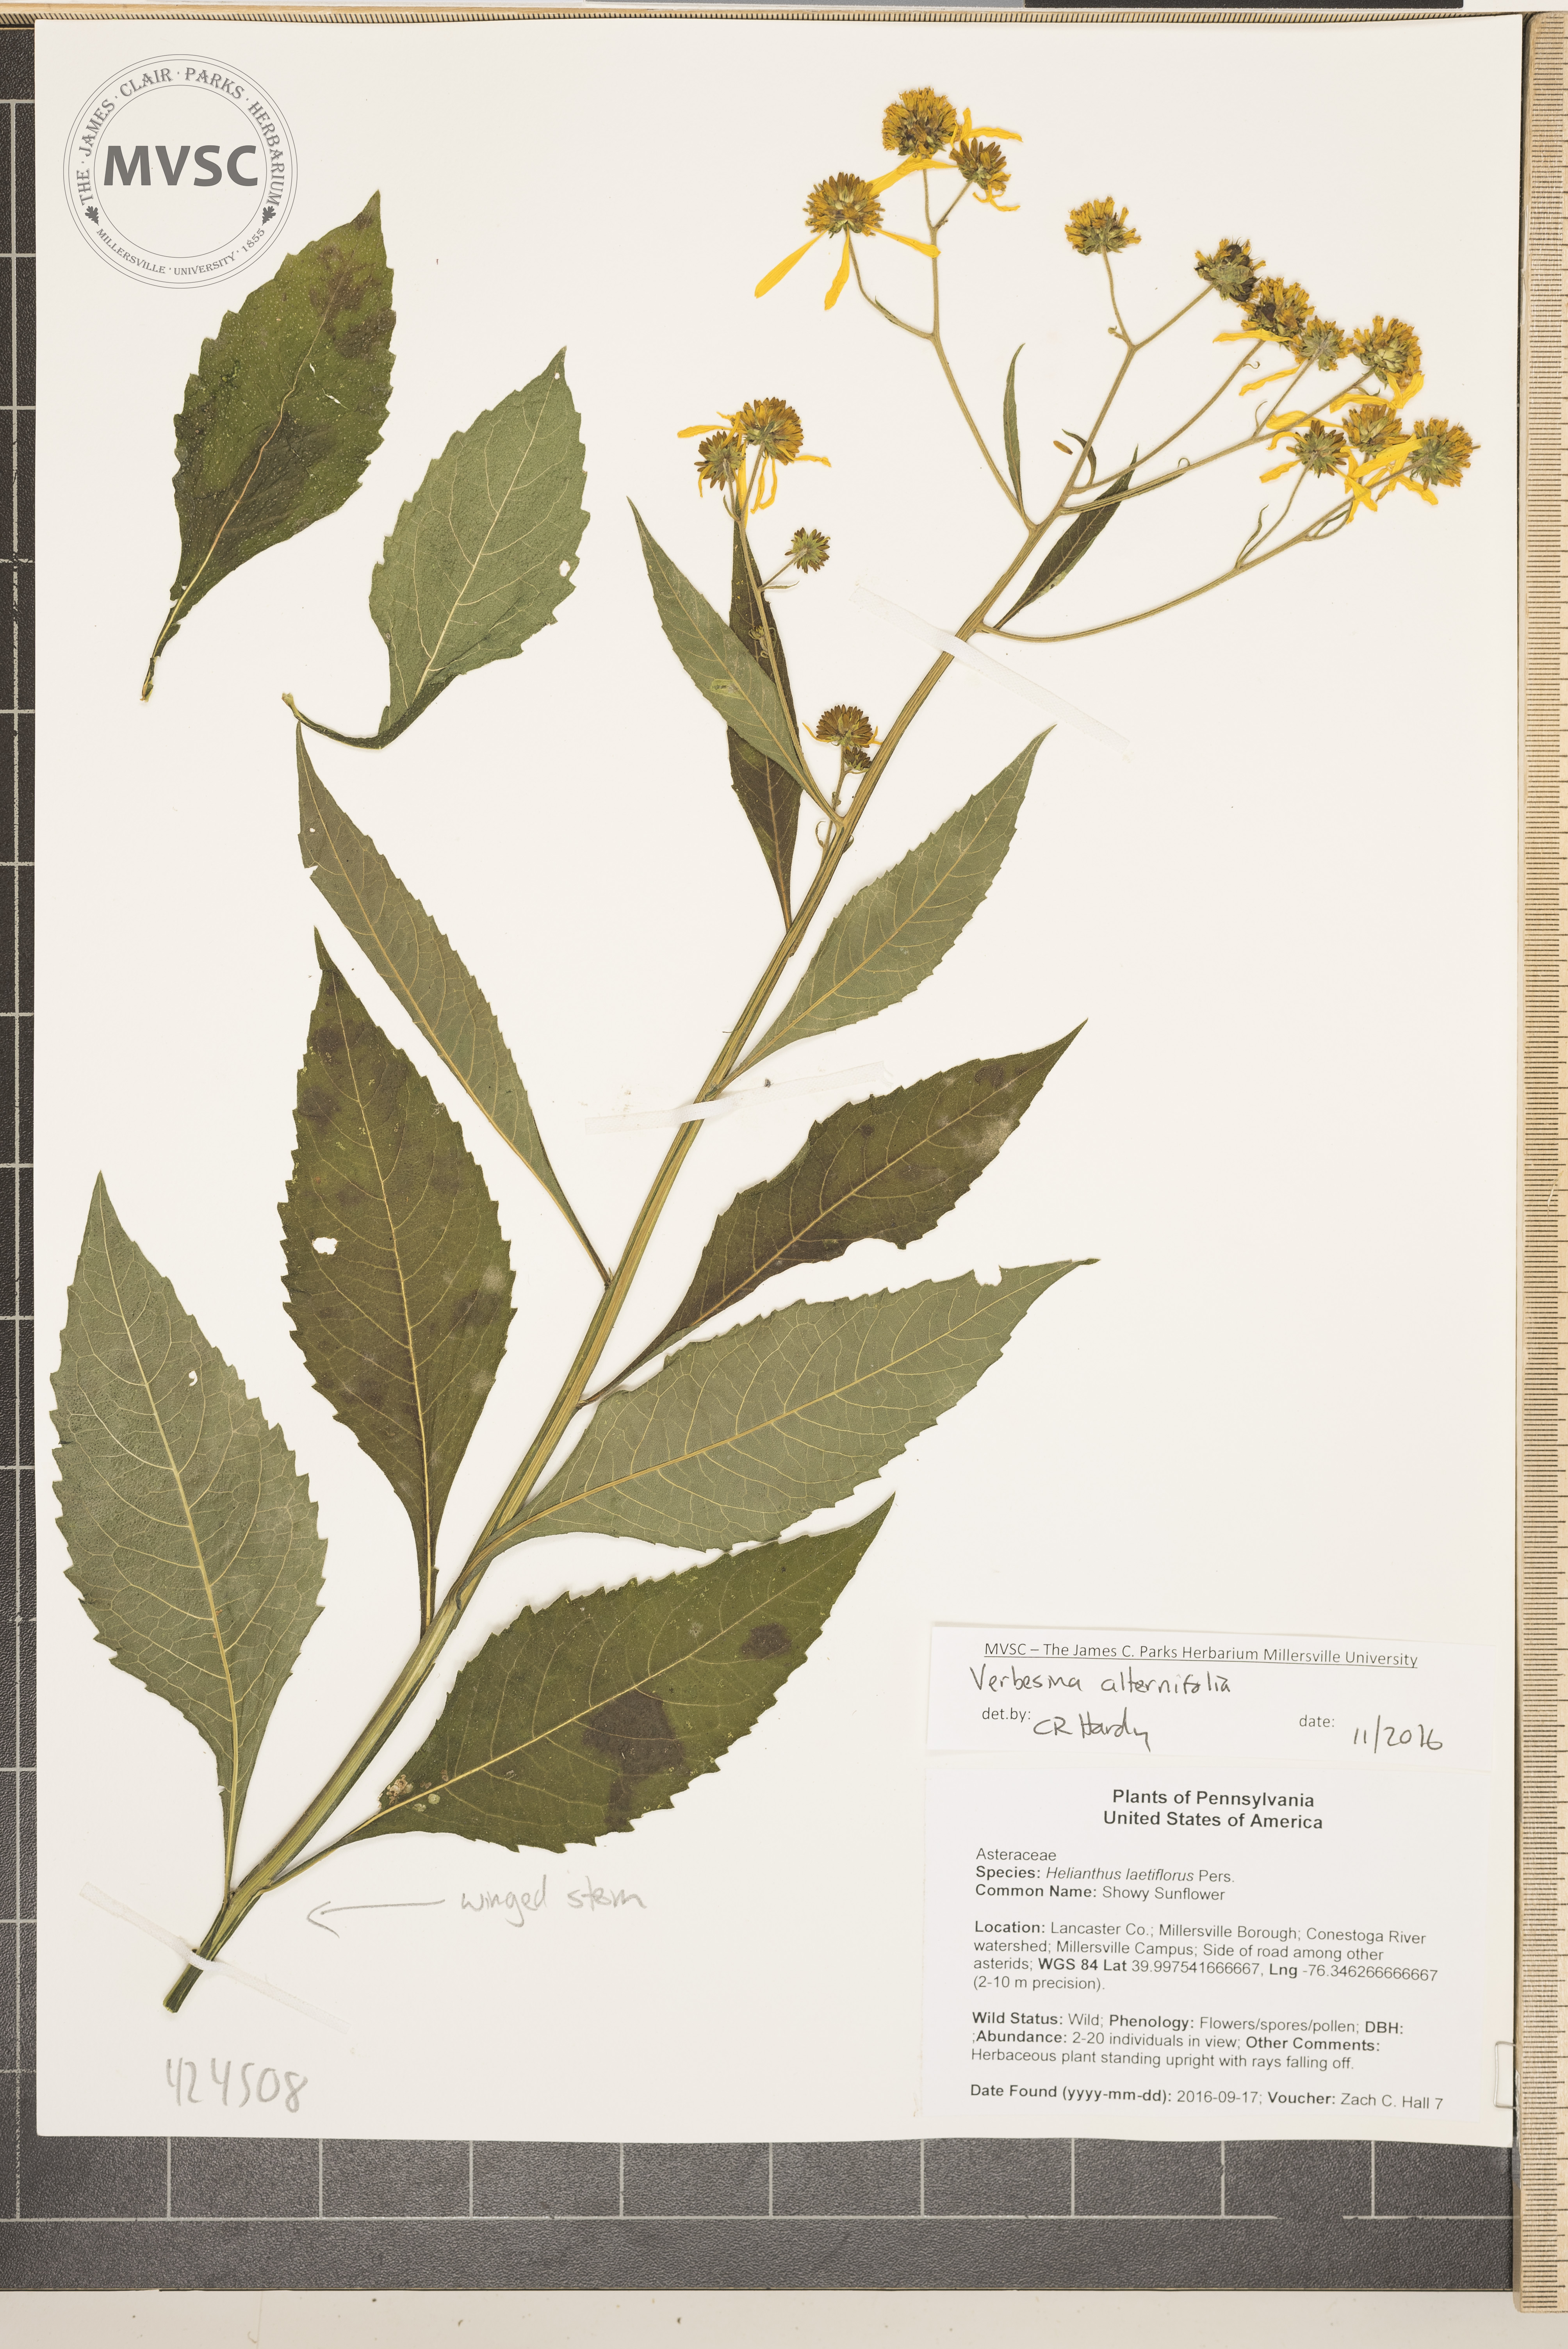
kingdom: Plantae
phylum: Tracheophyta
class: Magnoliopsida
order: Asterales
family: Asteraceae
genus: Verbesina
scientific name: Verbesina alternifolia
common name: Wingstem
